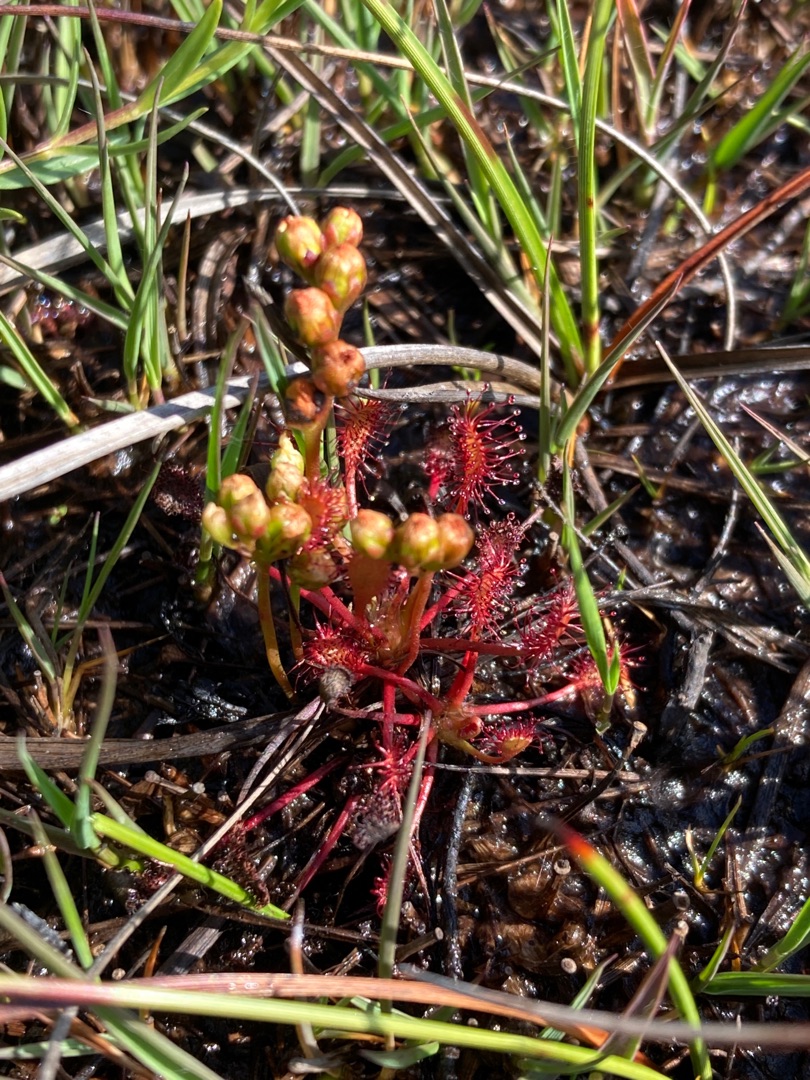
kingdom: Plantae
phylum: Tracheophyta
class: Magnoliopsida
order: Caryophyllales
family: Droseraceae
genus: Drosera
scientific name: Drosera intermedia
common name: Liden soldug
